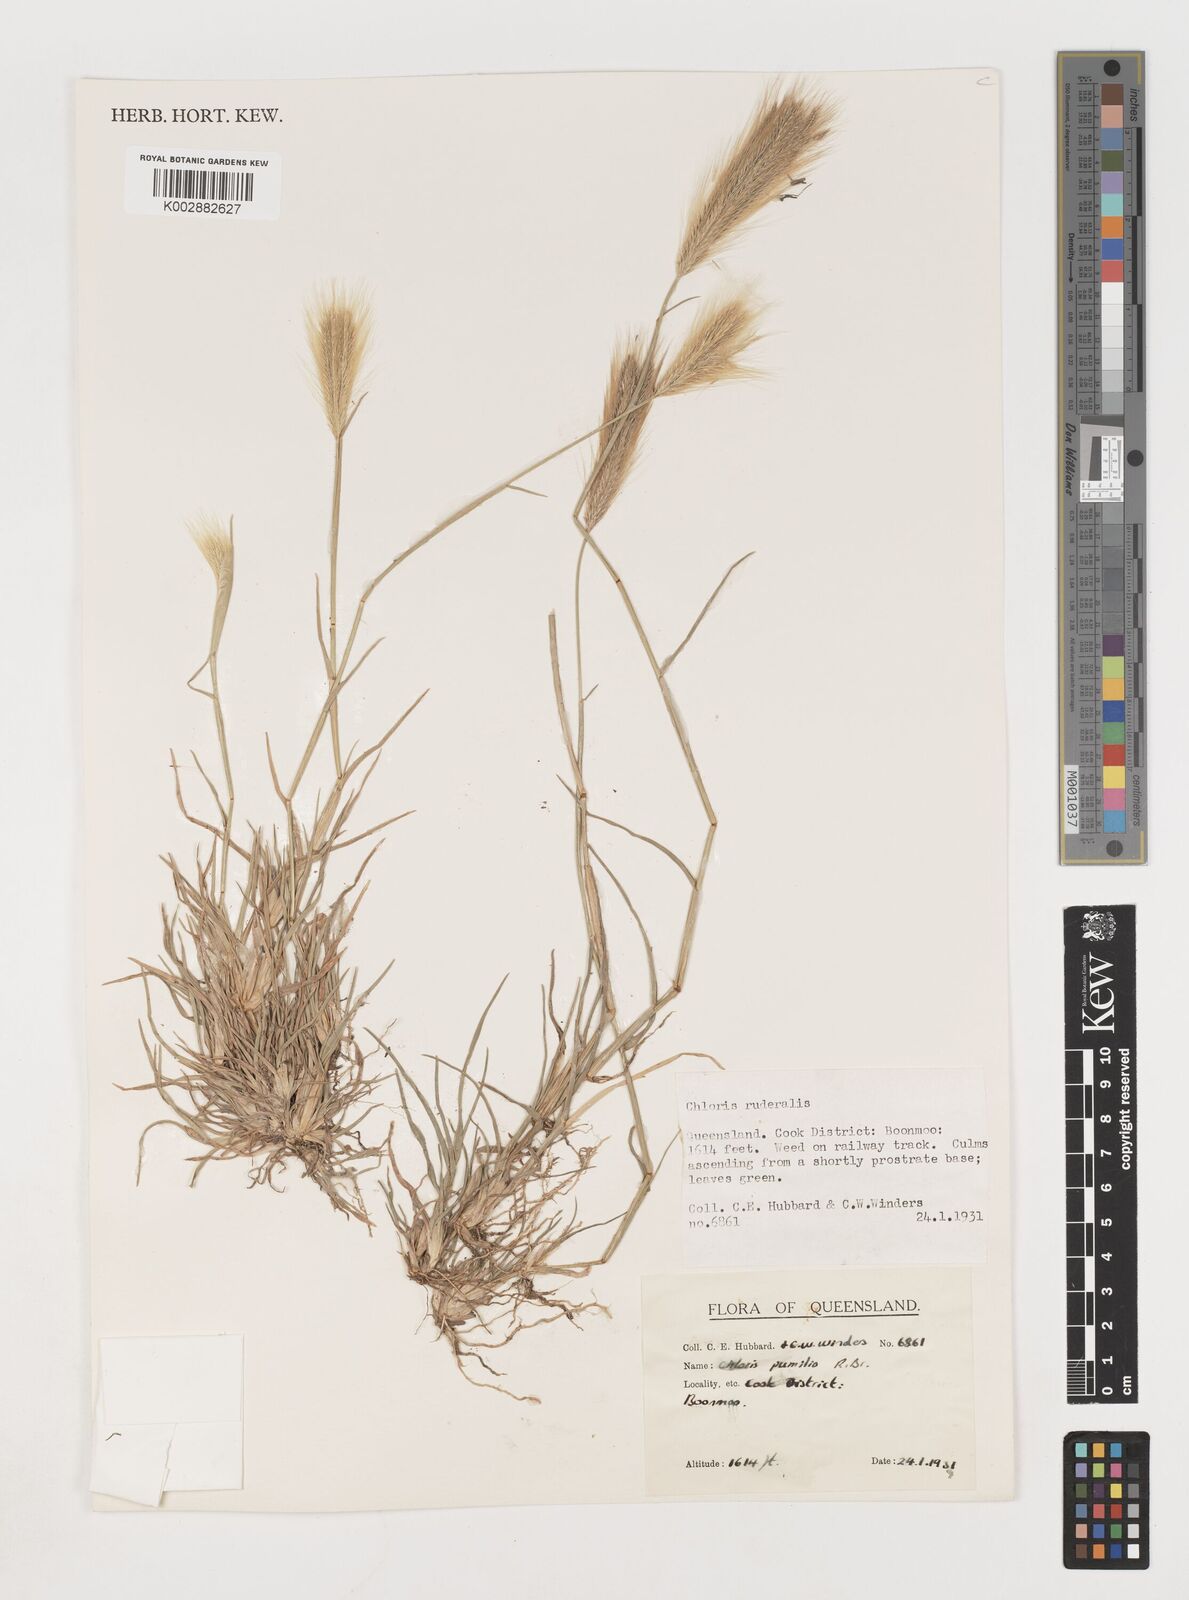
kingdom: Plantae
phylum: Tracheophyta
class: Liliopsida
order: Poales
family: Poaceae
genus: Chloris
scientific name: Chloris pumilio
